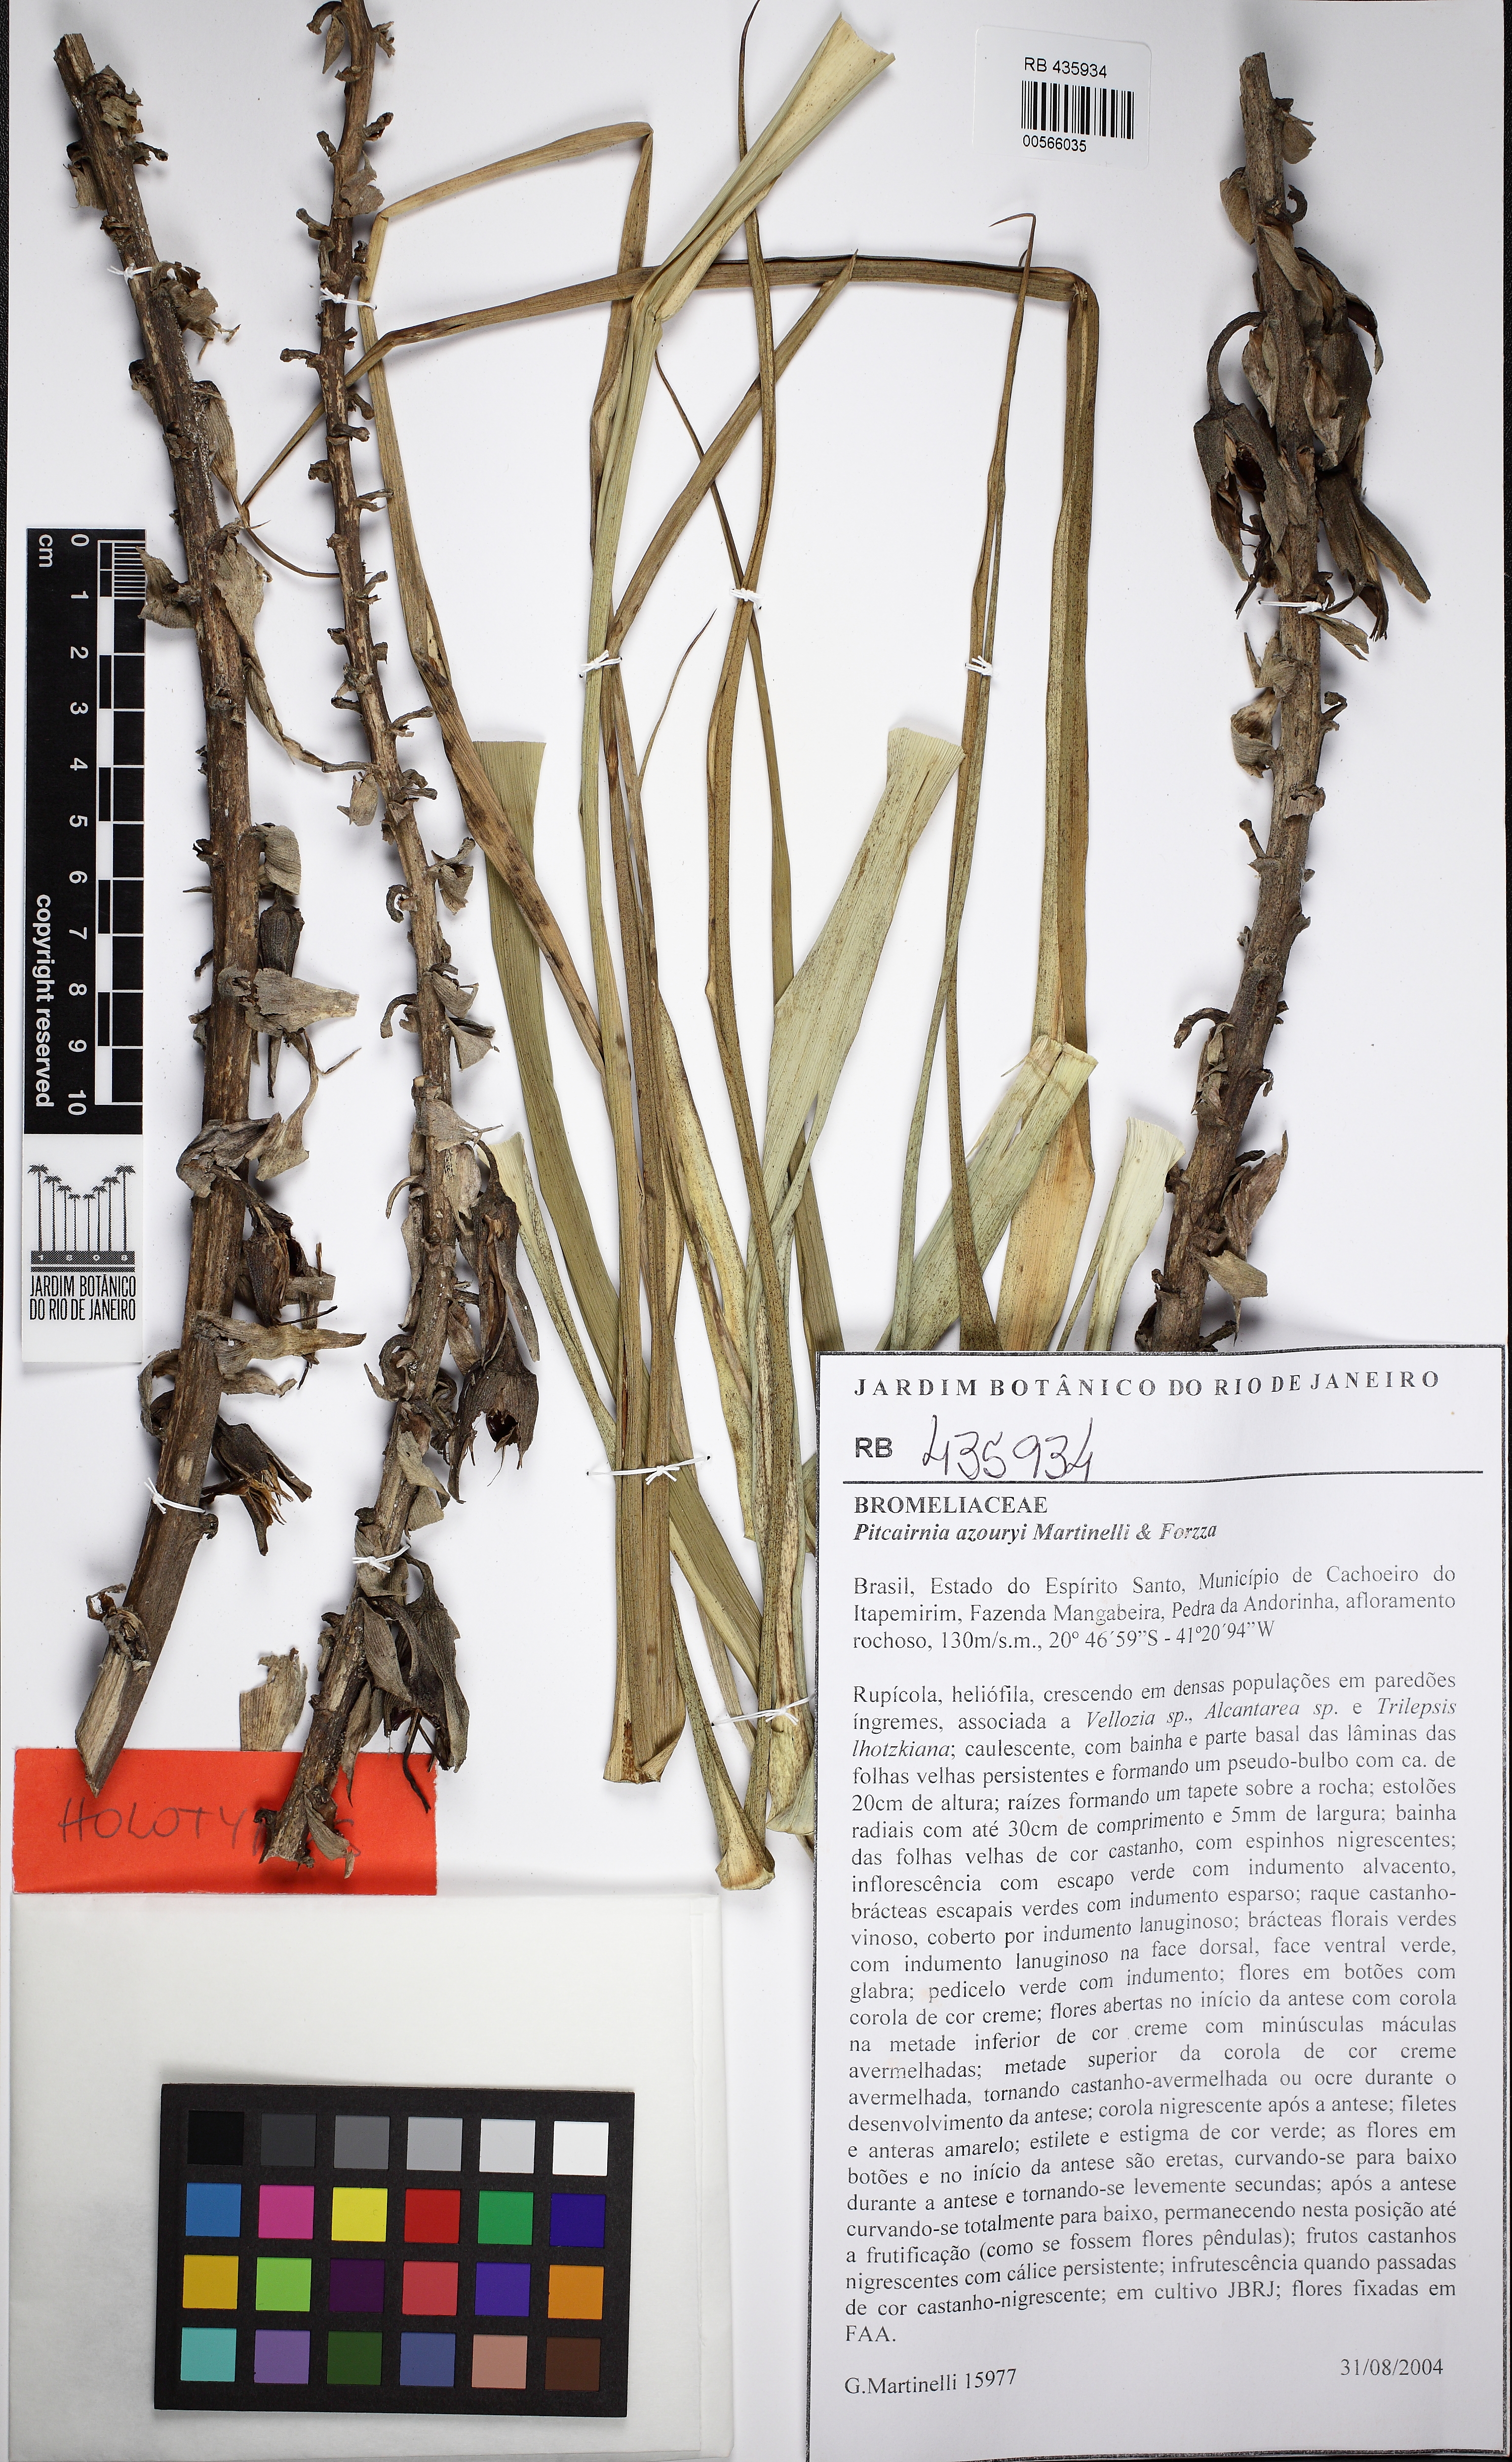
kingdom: Plantae
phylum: Tracheophyta
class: Liliopsida
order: Poales
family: Bromeliaceae
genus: Pitcairnia
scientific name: Pitcairnia azouryi
